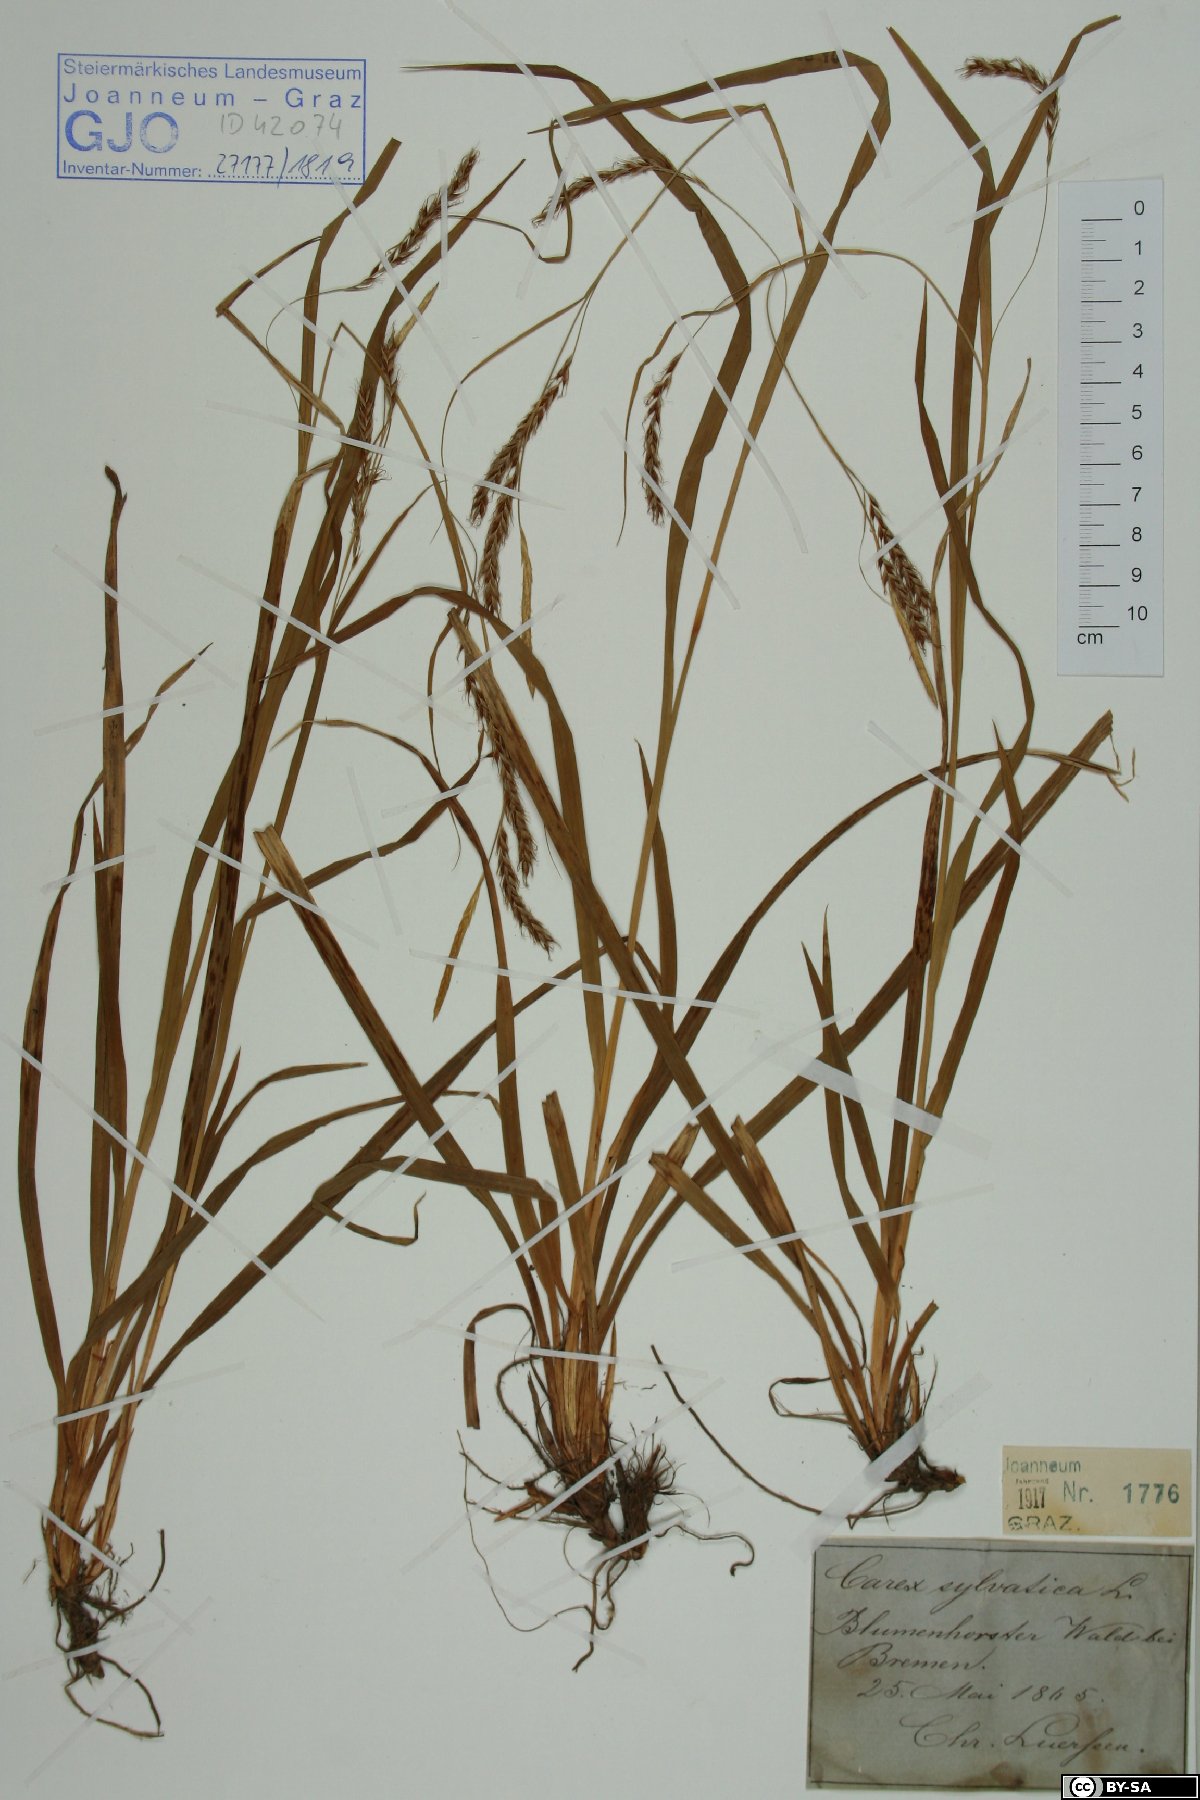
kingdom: Plantae
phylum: Tracheophyta
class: Liliopsida
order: Poales
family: Cyperaceae
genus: Carex
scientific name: Carex sylvatica
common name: Wood-sedge
